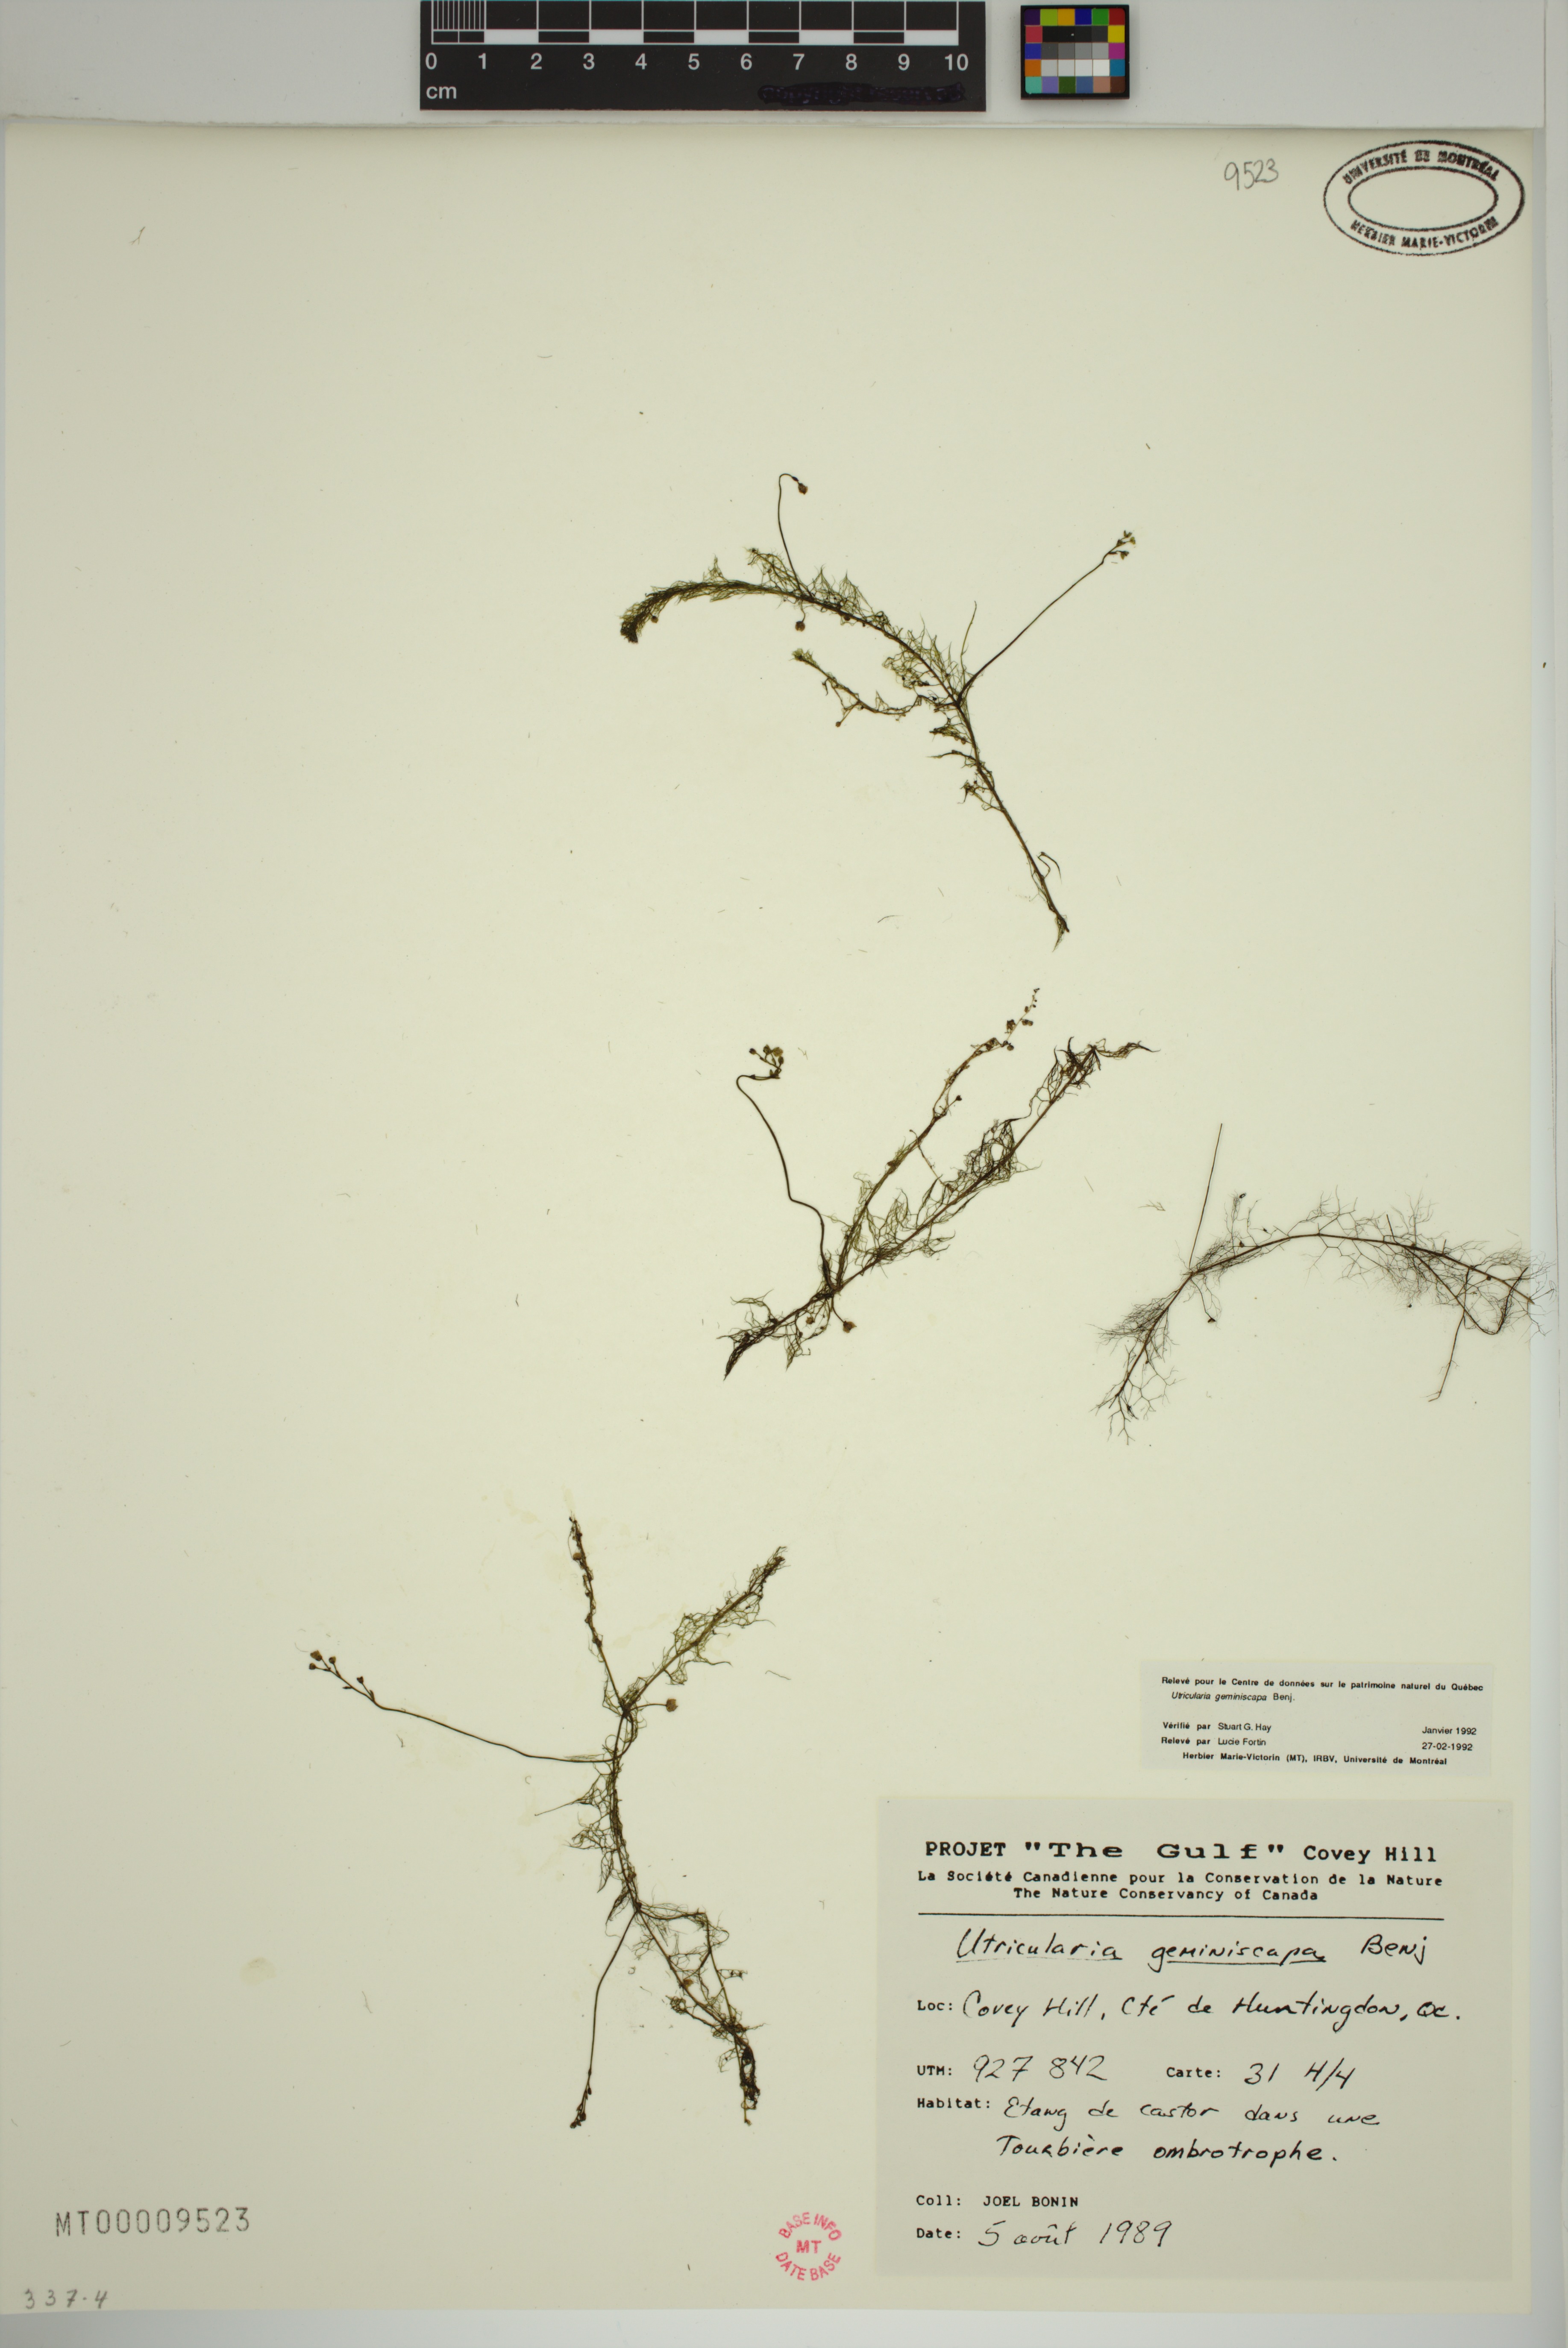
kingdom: Plantae
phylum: Tracheophyta
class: Magnoliopsida
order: Lamiales
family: Lentibulariaceae
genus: Utricularia
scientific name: Utricularia geminiscapa
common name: Hidden-fruit bladderwort
